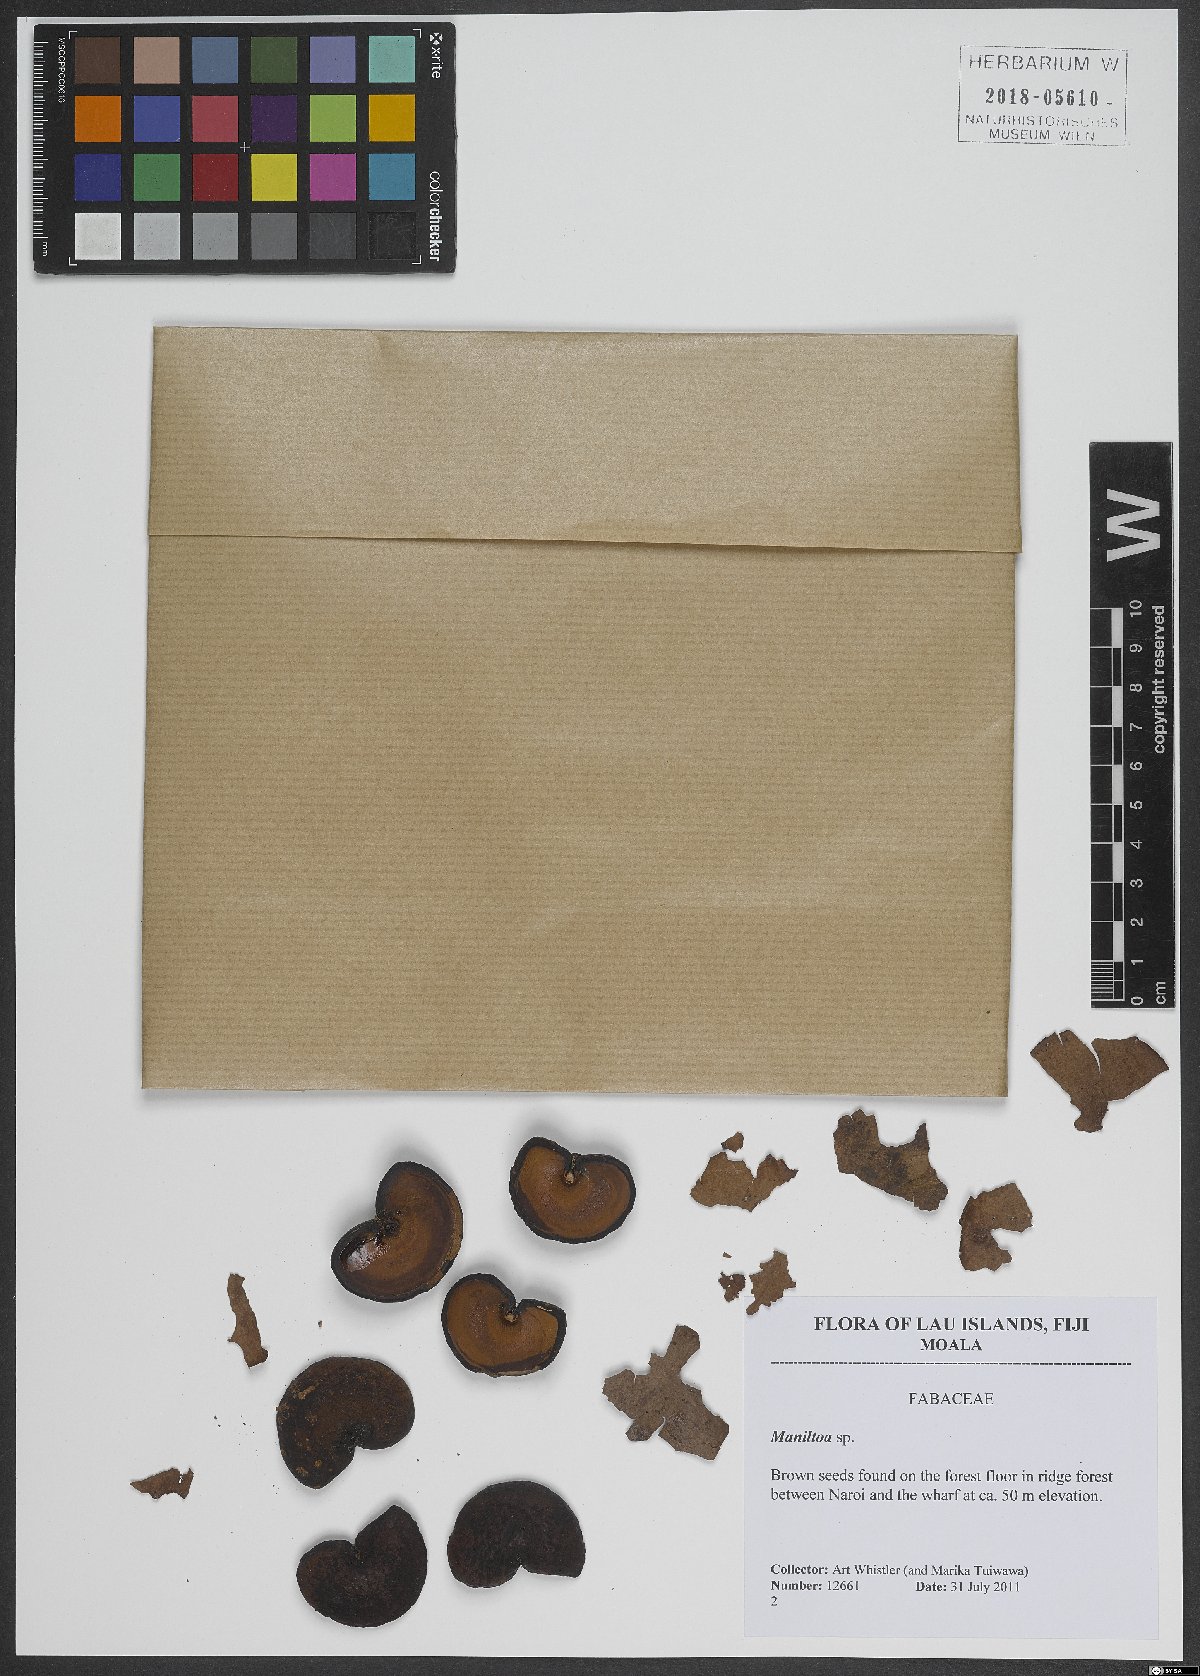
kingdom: Plantae
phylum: Tracheophyta
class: Magnoliopsida
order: Fabales
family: Fabaceae
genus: Cynometra
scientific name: Cynometra
